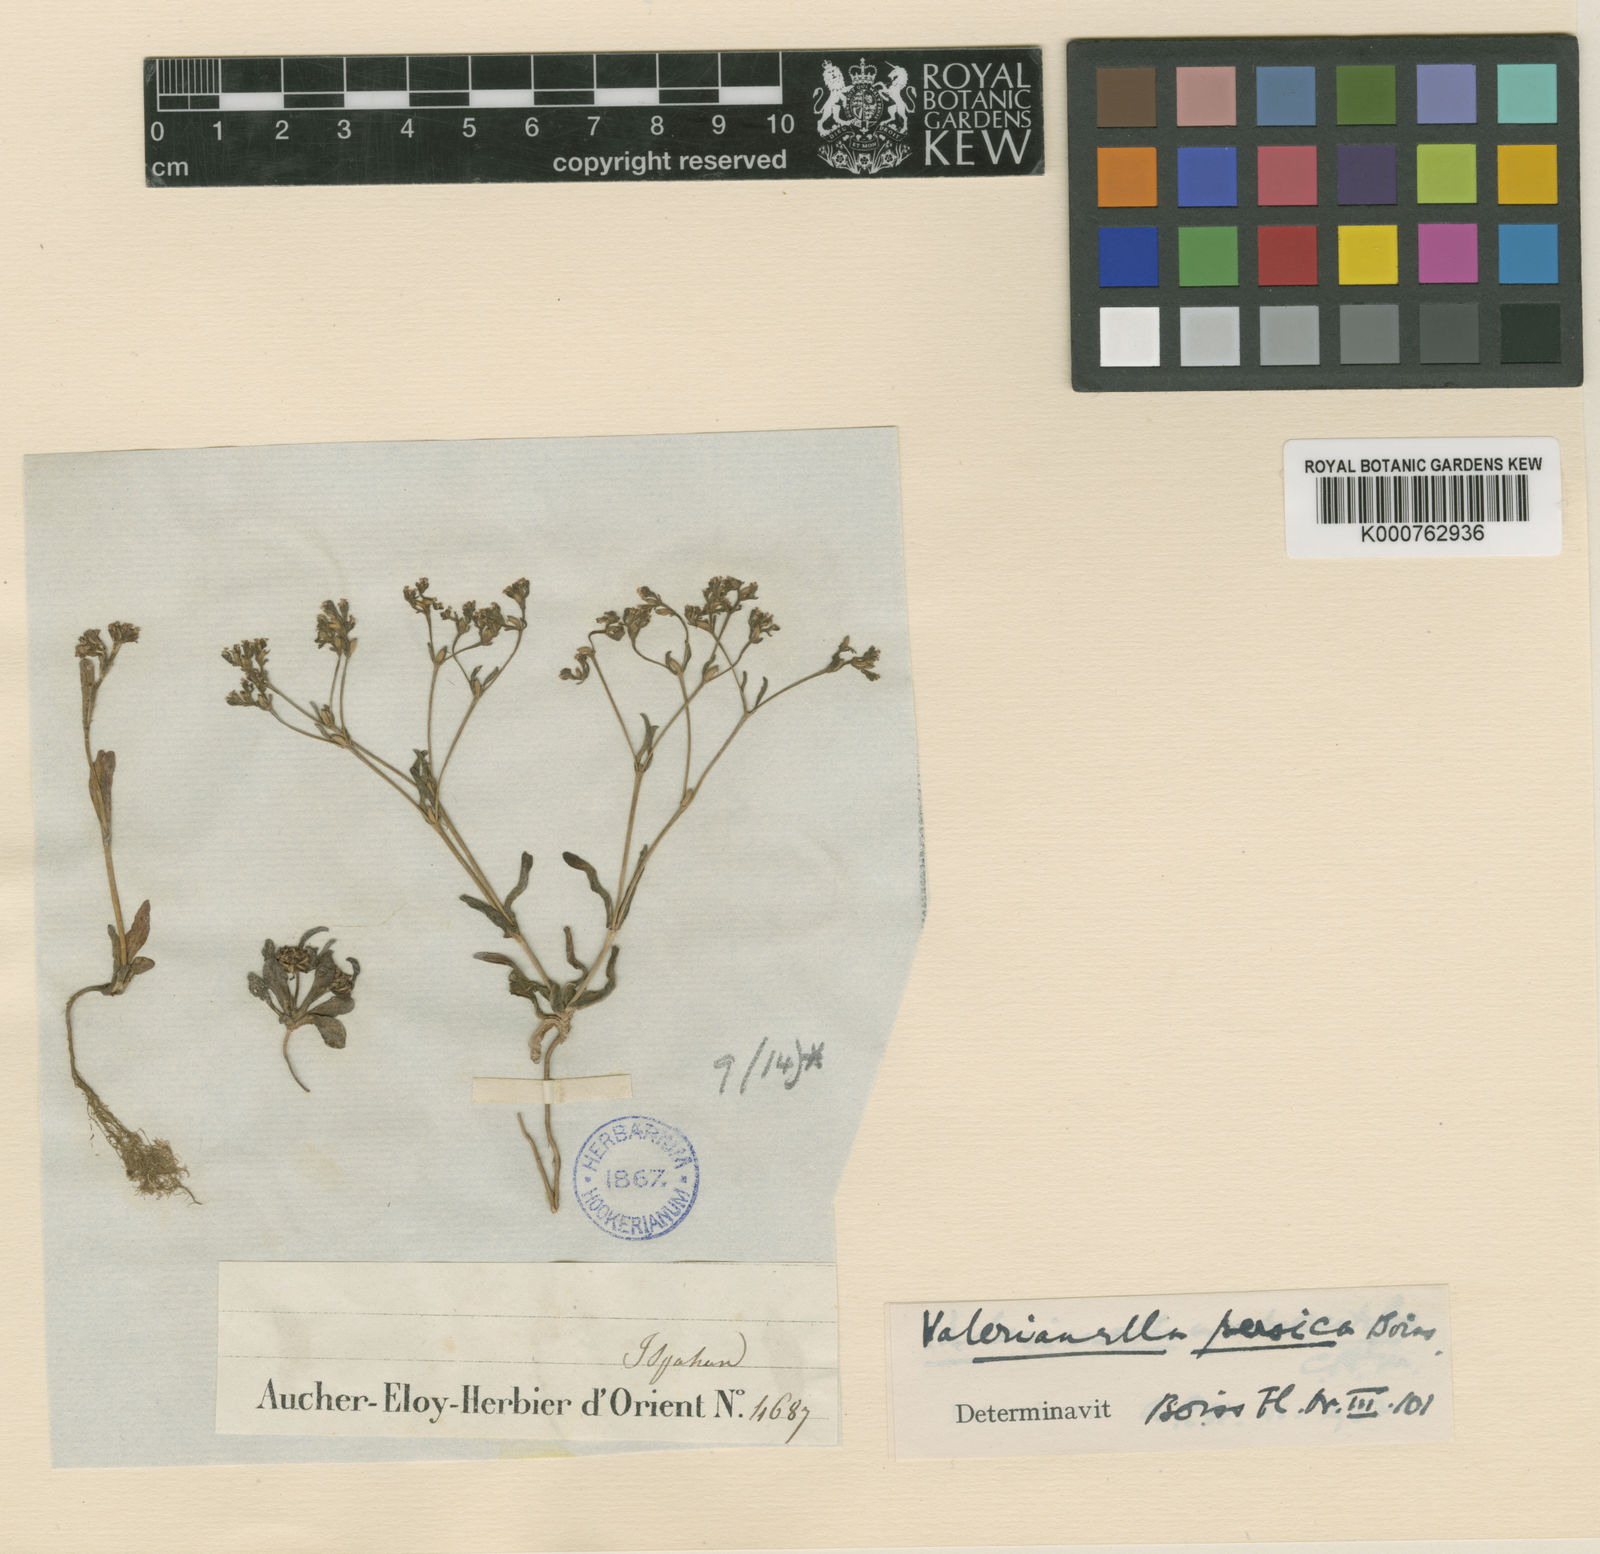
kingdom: Plantae
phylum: Tracheophyta
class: Magnoliopsida
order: Dipsacales
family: Caprifoliaceae
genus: Valerianella
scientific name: Valerianella szovitsiana
